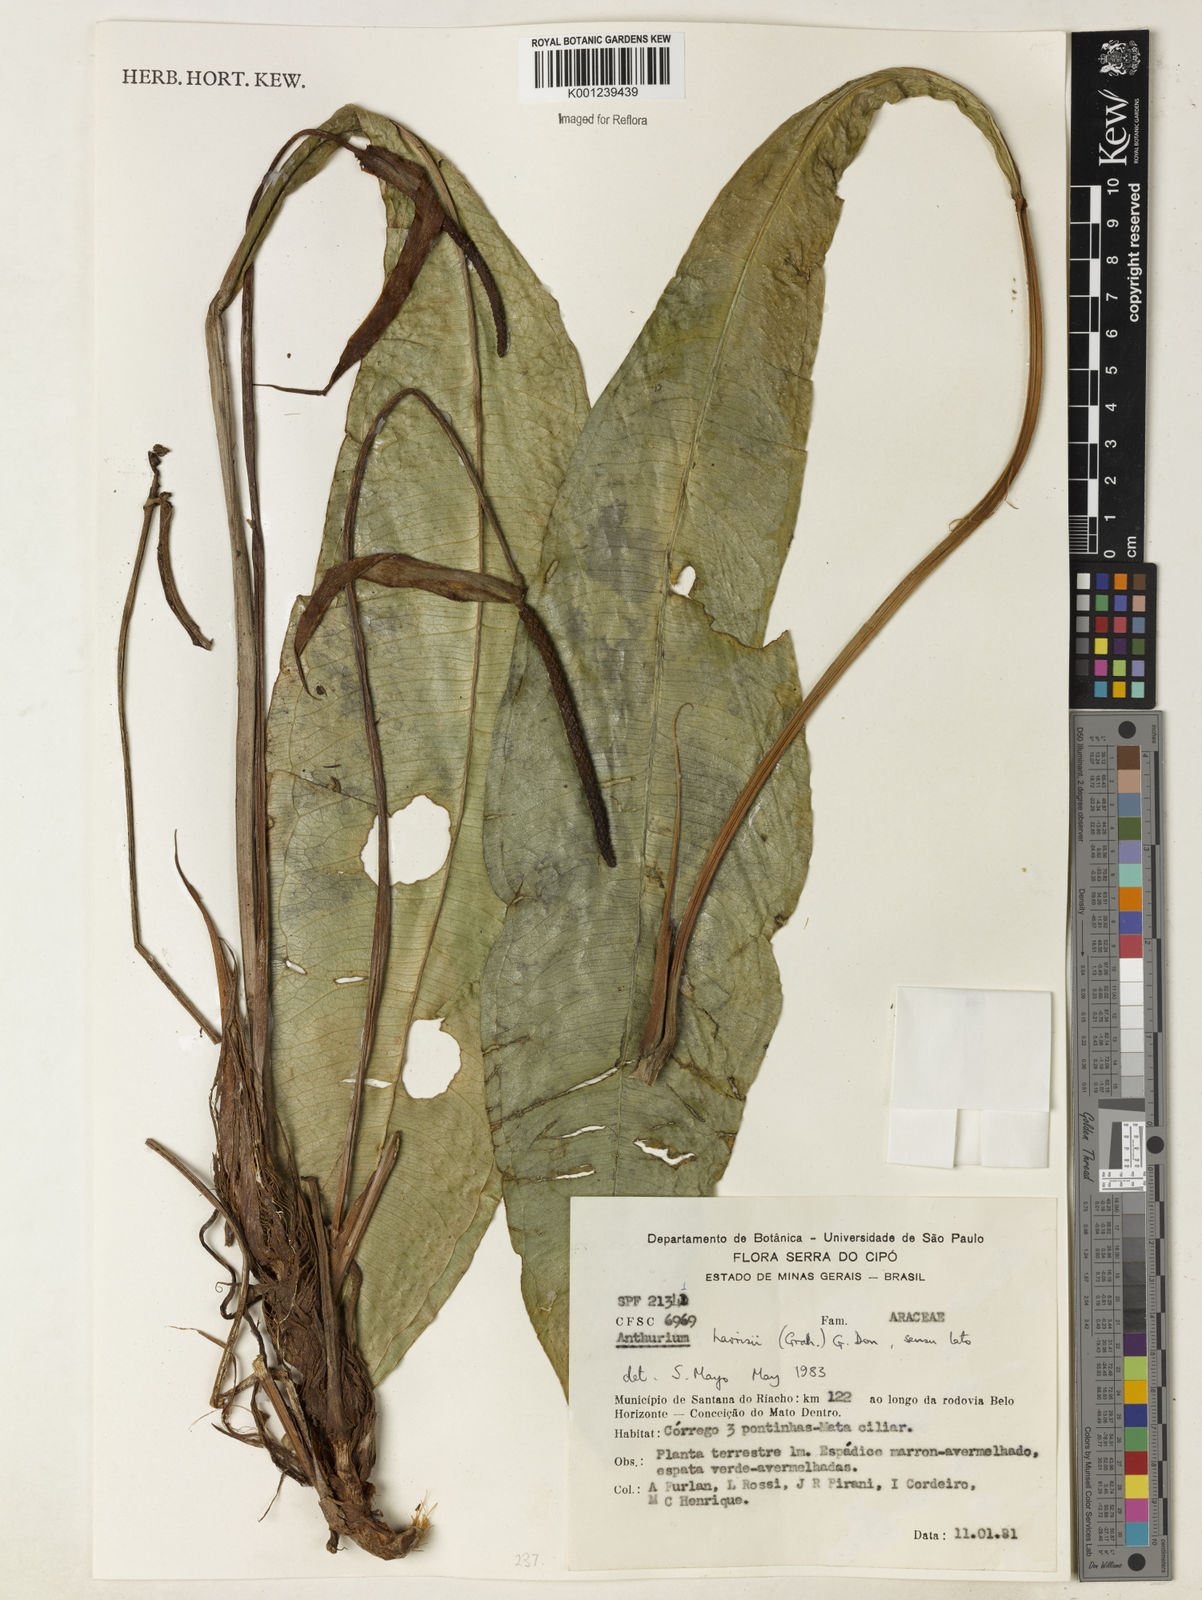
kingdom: Plantae
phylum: Tracheophyta
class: Liliopsida
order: Alismatales
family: Araceae
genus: Anthurium
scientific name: Anthurium harrisii
